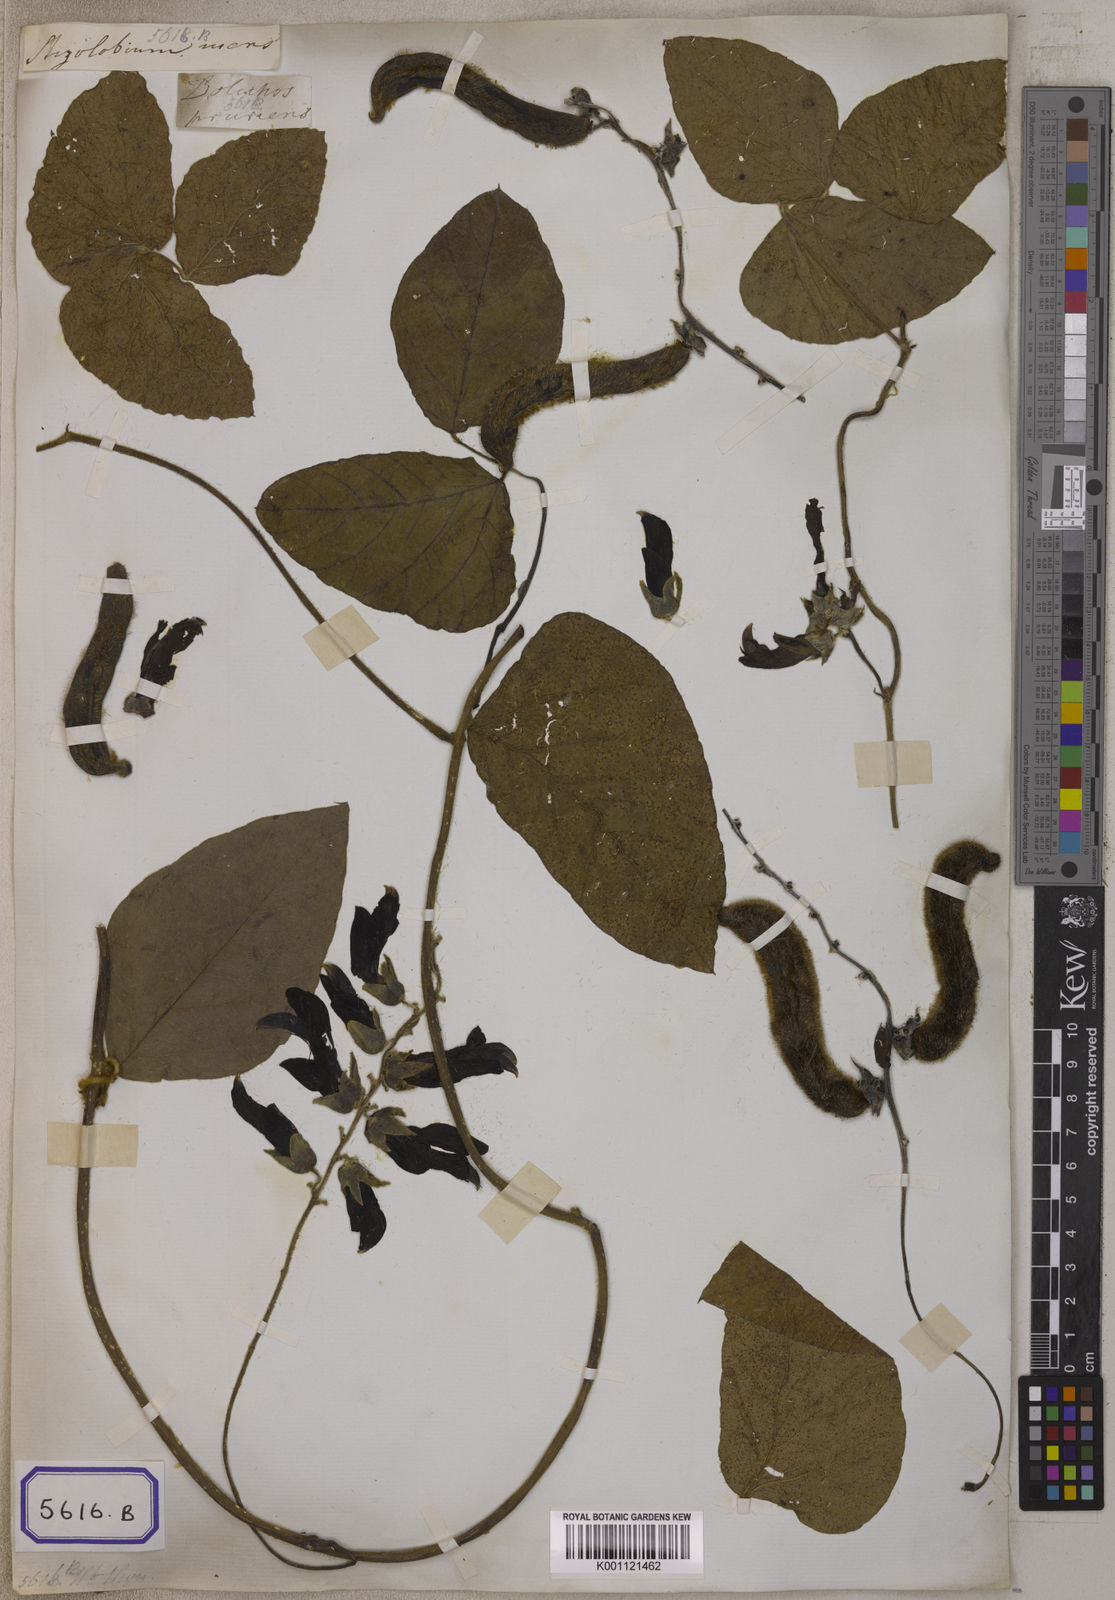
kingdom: Plantae
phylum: Tracheophyta
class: Magnoliopsida
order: Fabales
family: Fabaceae
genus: Mucuna
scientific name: Mucuna pruriens
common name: Cow-itch
